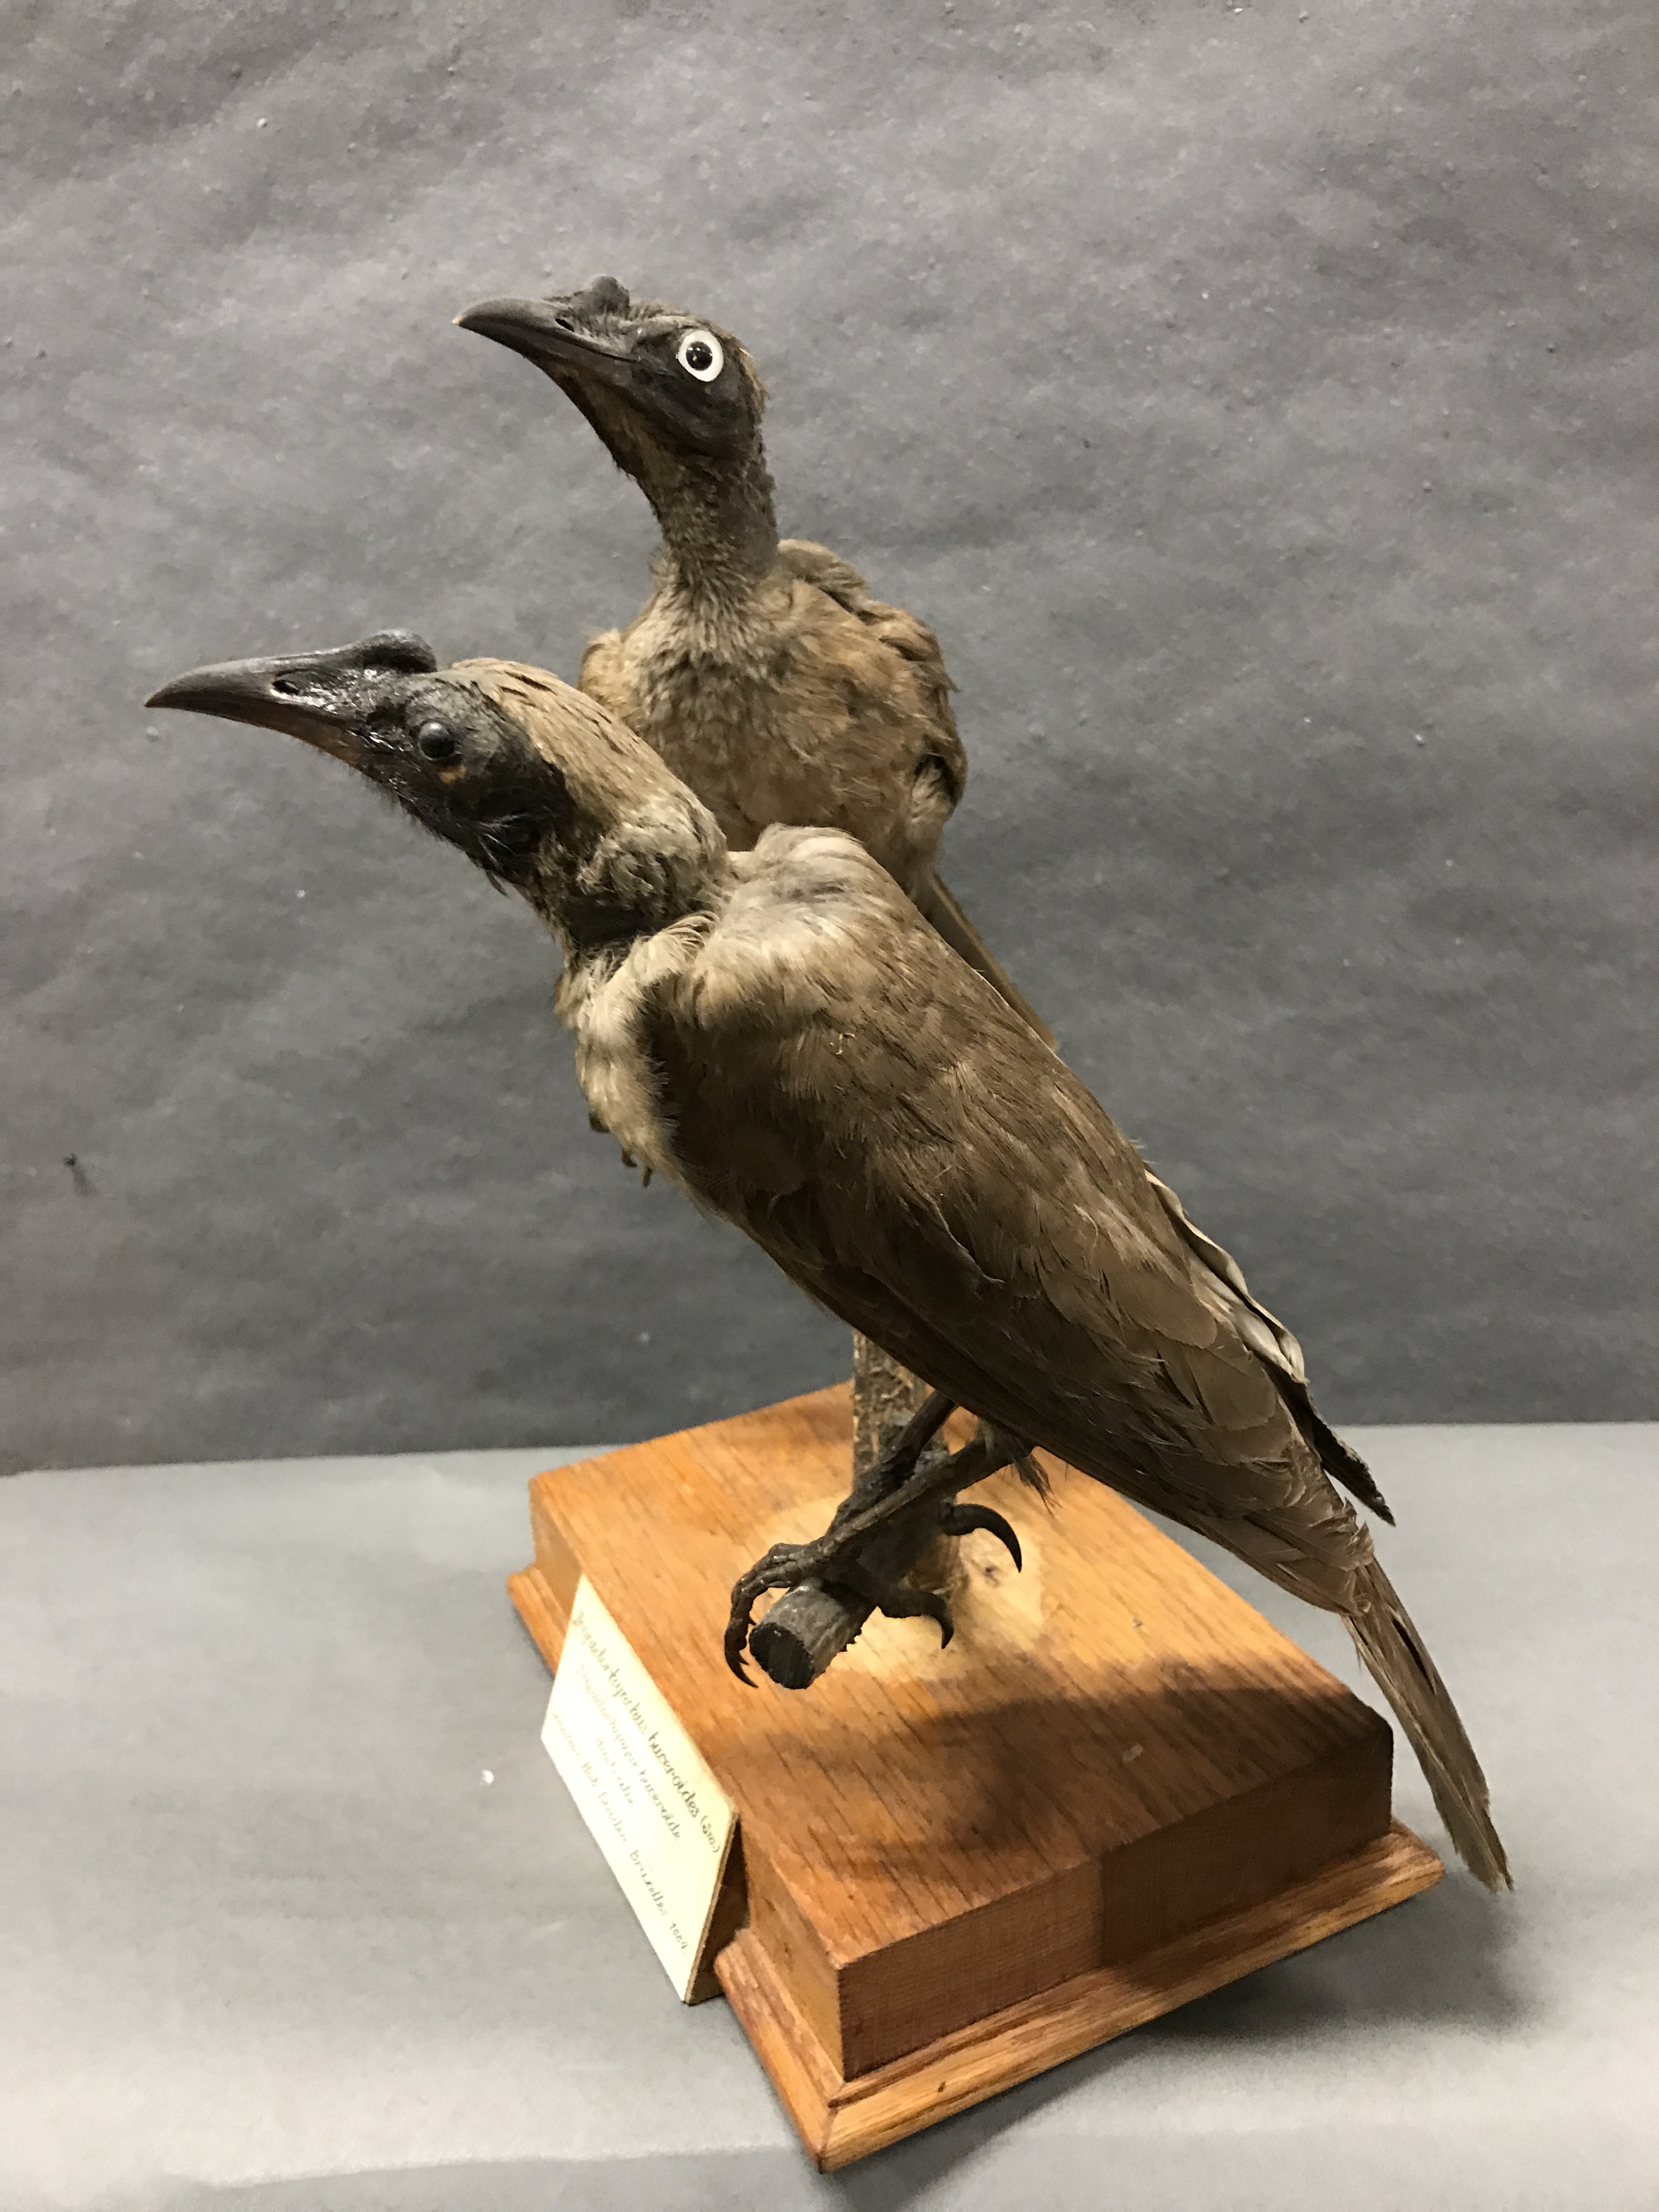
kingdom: Animalia
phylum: Chordata
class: Aves
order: Passeriformes
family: Meliphagidae
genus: Philemon
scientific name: Philemon buceroides
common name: Helmeted friarbird
